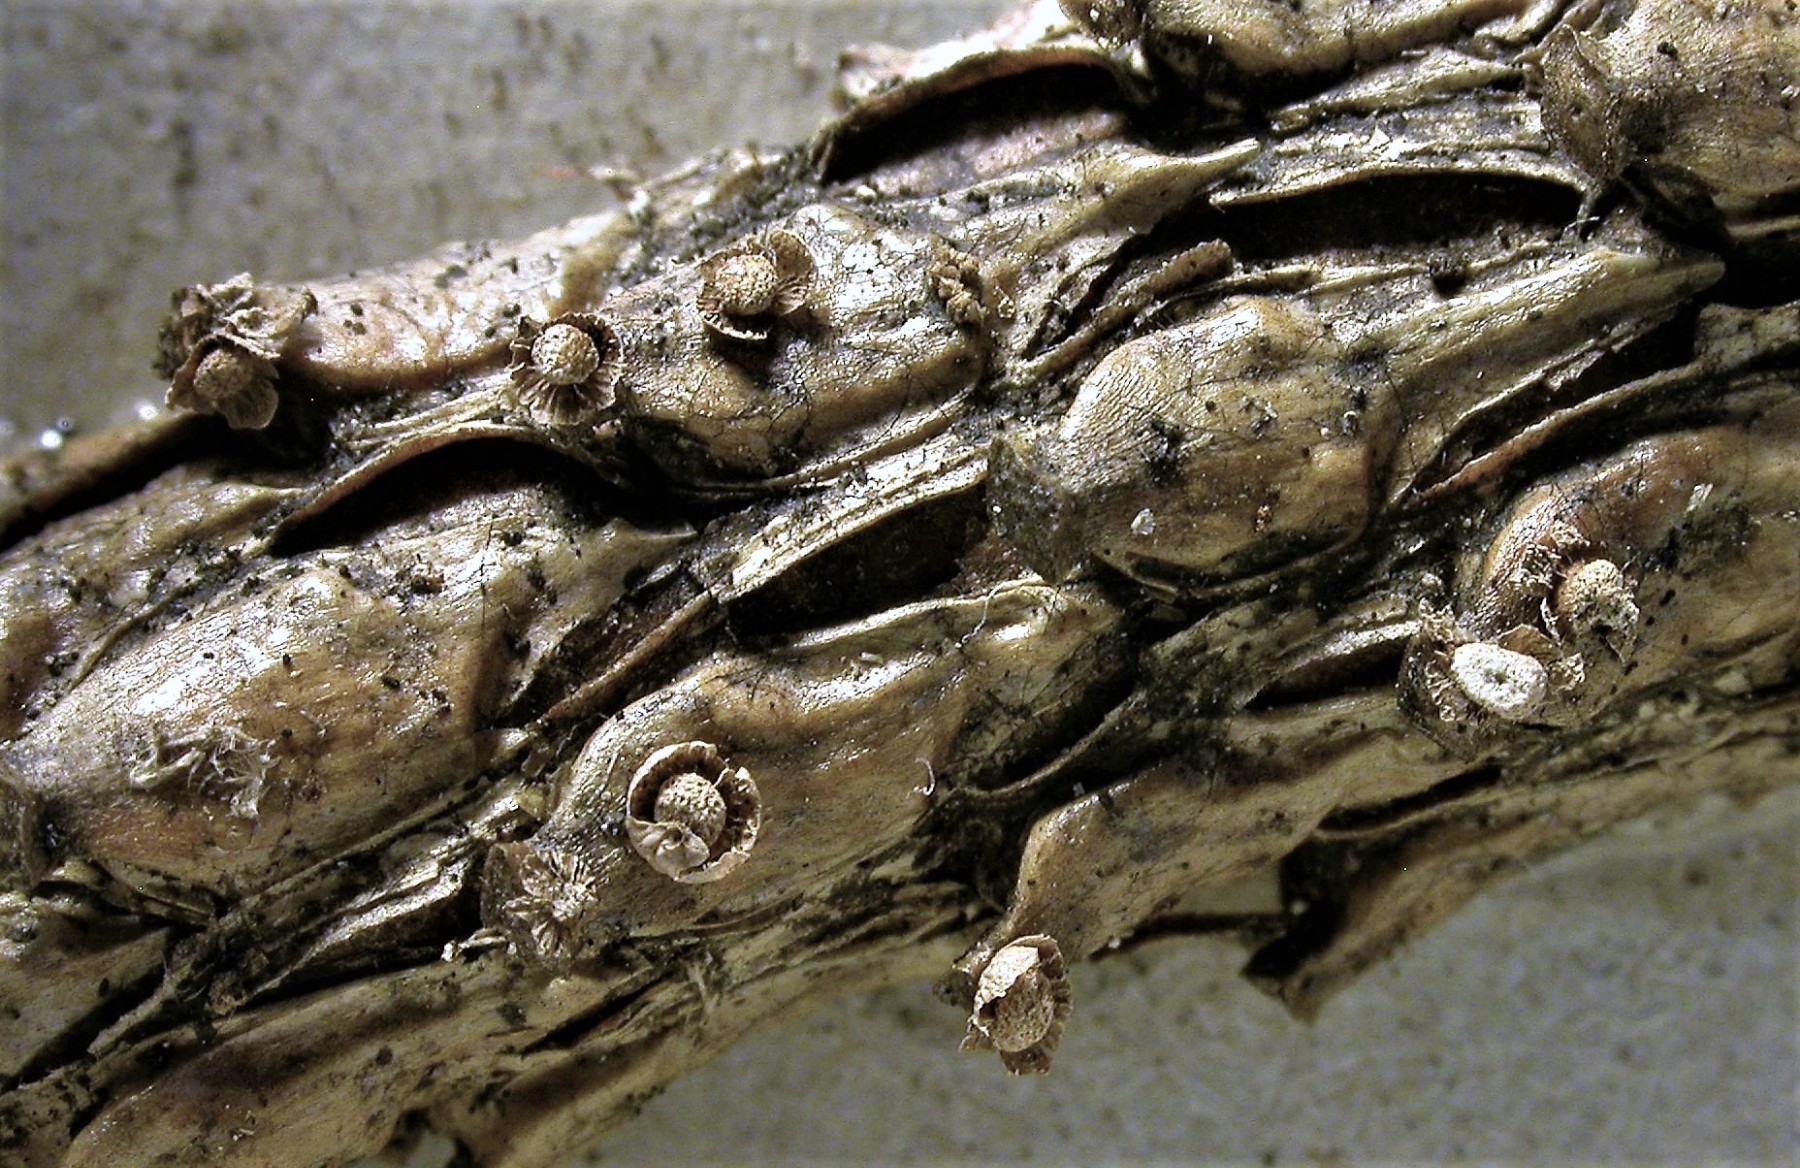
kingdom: Protozoa
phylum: Mycetozoa
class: Myxomycetes
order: Physarales
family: Didymiaceae
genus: Diderma
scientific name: Diderma umbilicatum
